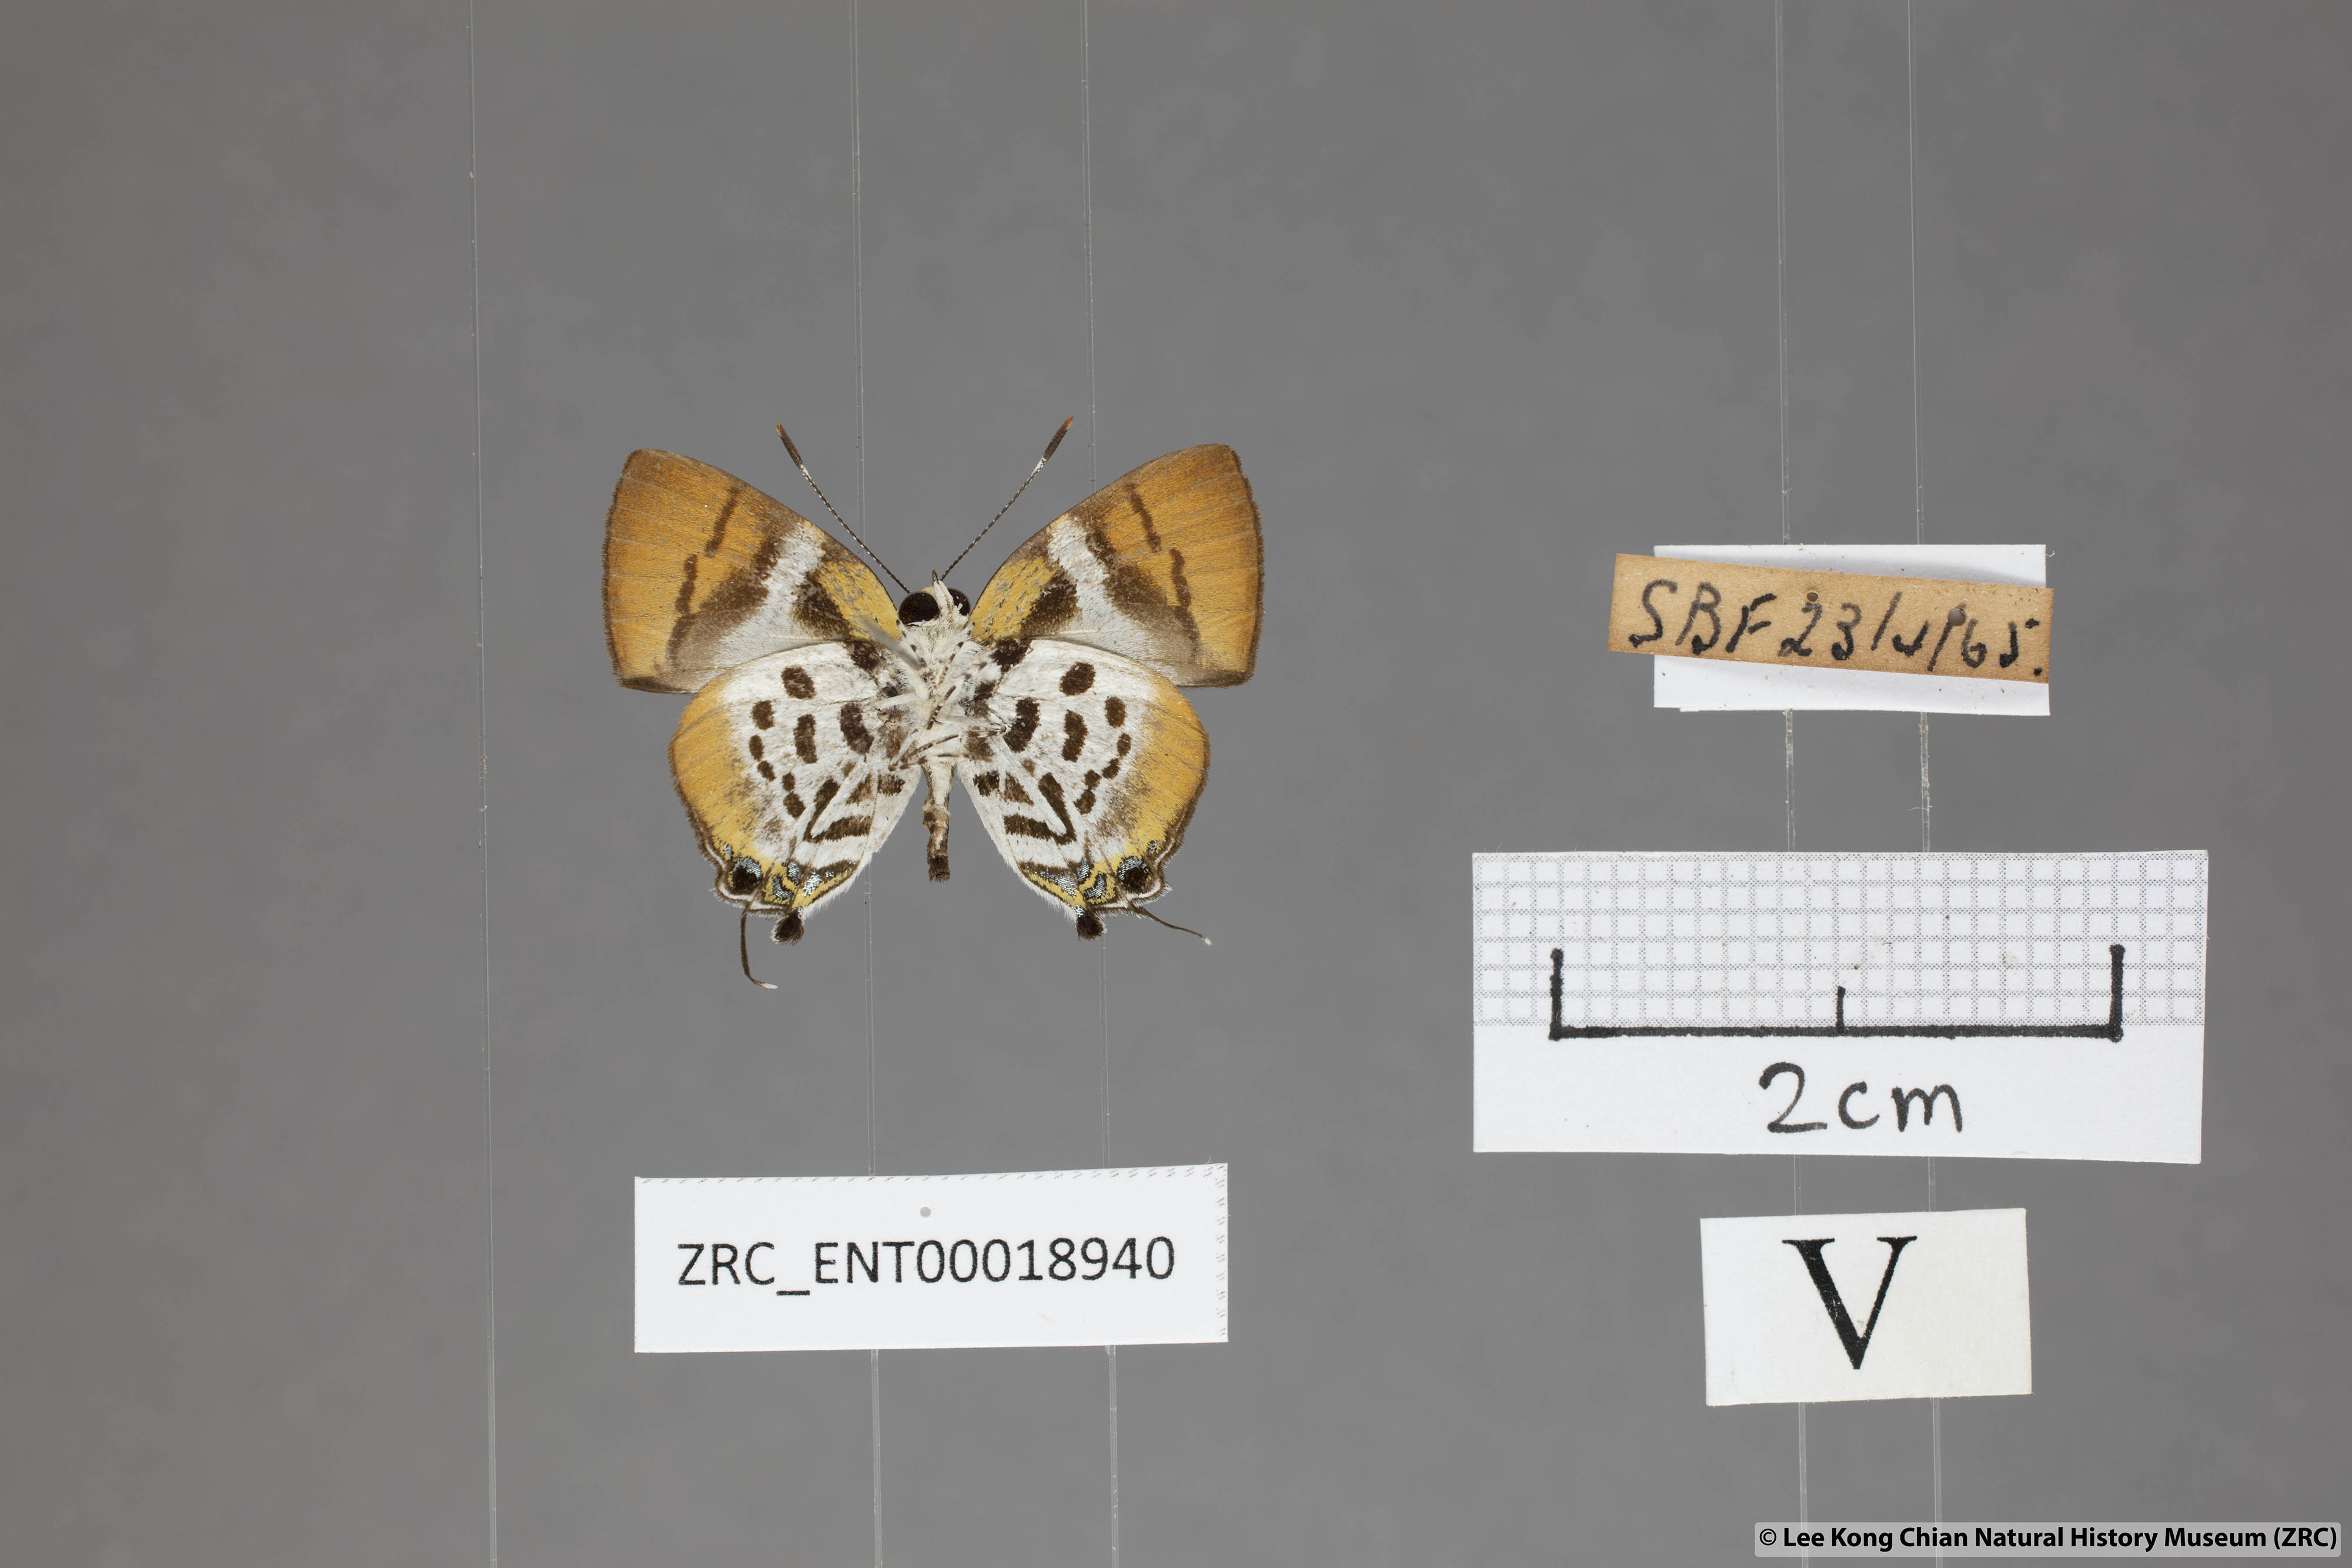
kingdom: Animalia
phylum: Arthropoda
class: Insecta
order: Lepidoptera
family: Lycaenidae
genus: Araotes
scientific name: Araotes lapithis
